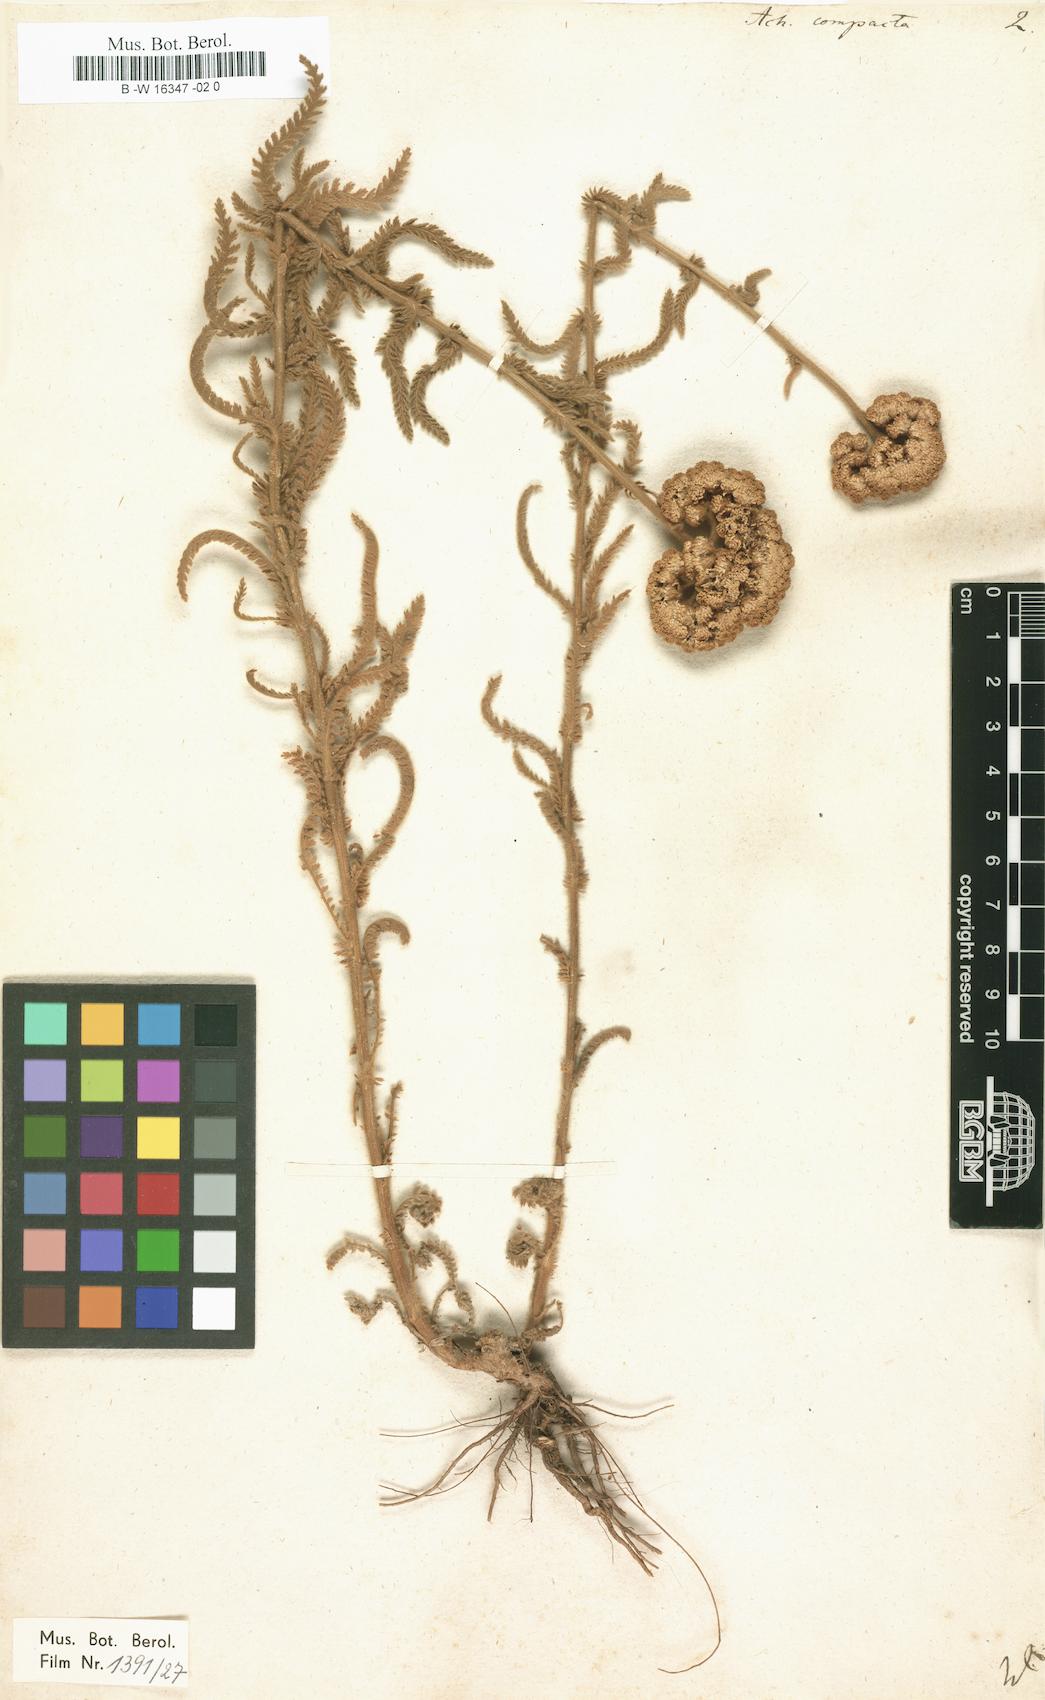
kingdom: Plantae
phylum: Tracheophyta
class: Magnoliopsida
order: Asterales
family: Asteraceae
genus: Achillea
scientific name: Achillea clypeolata
